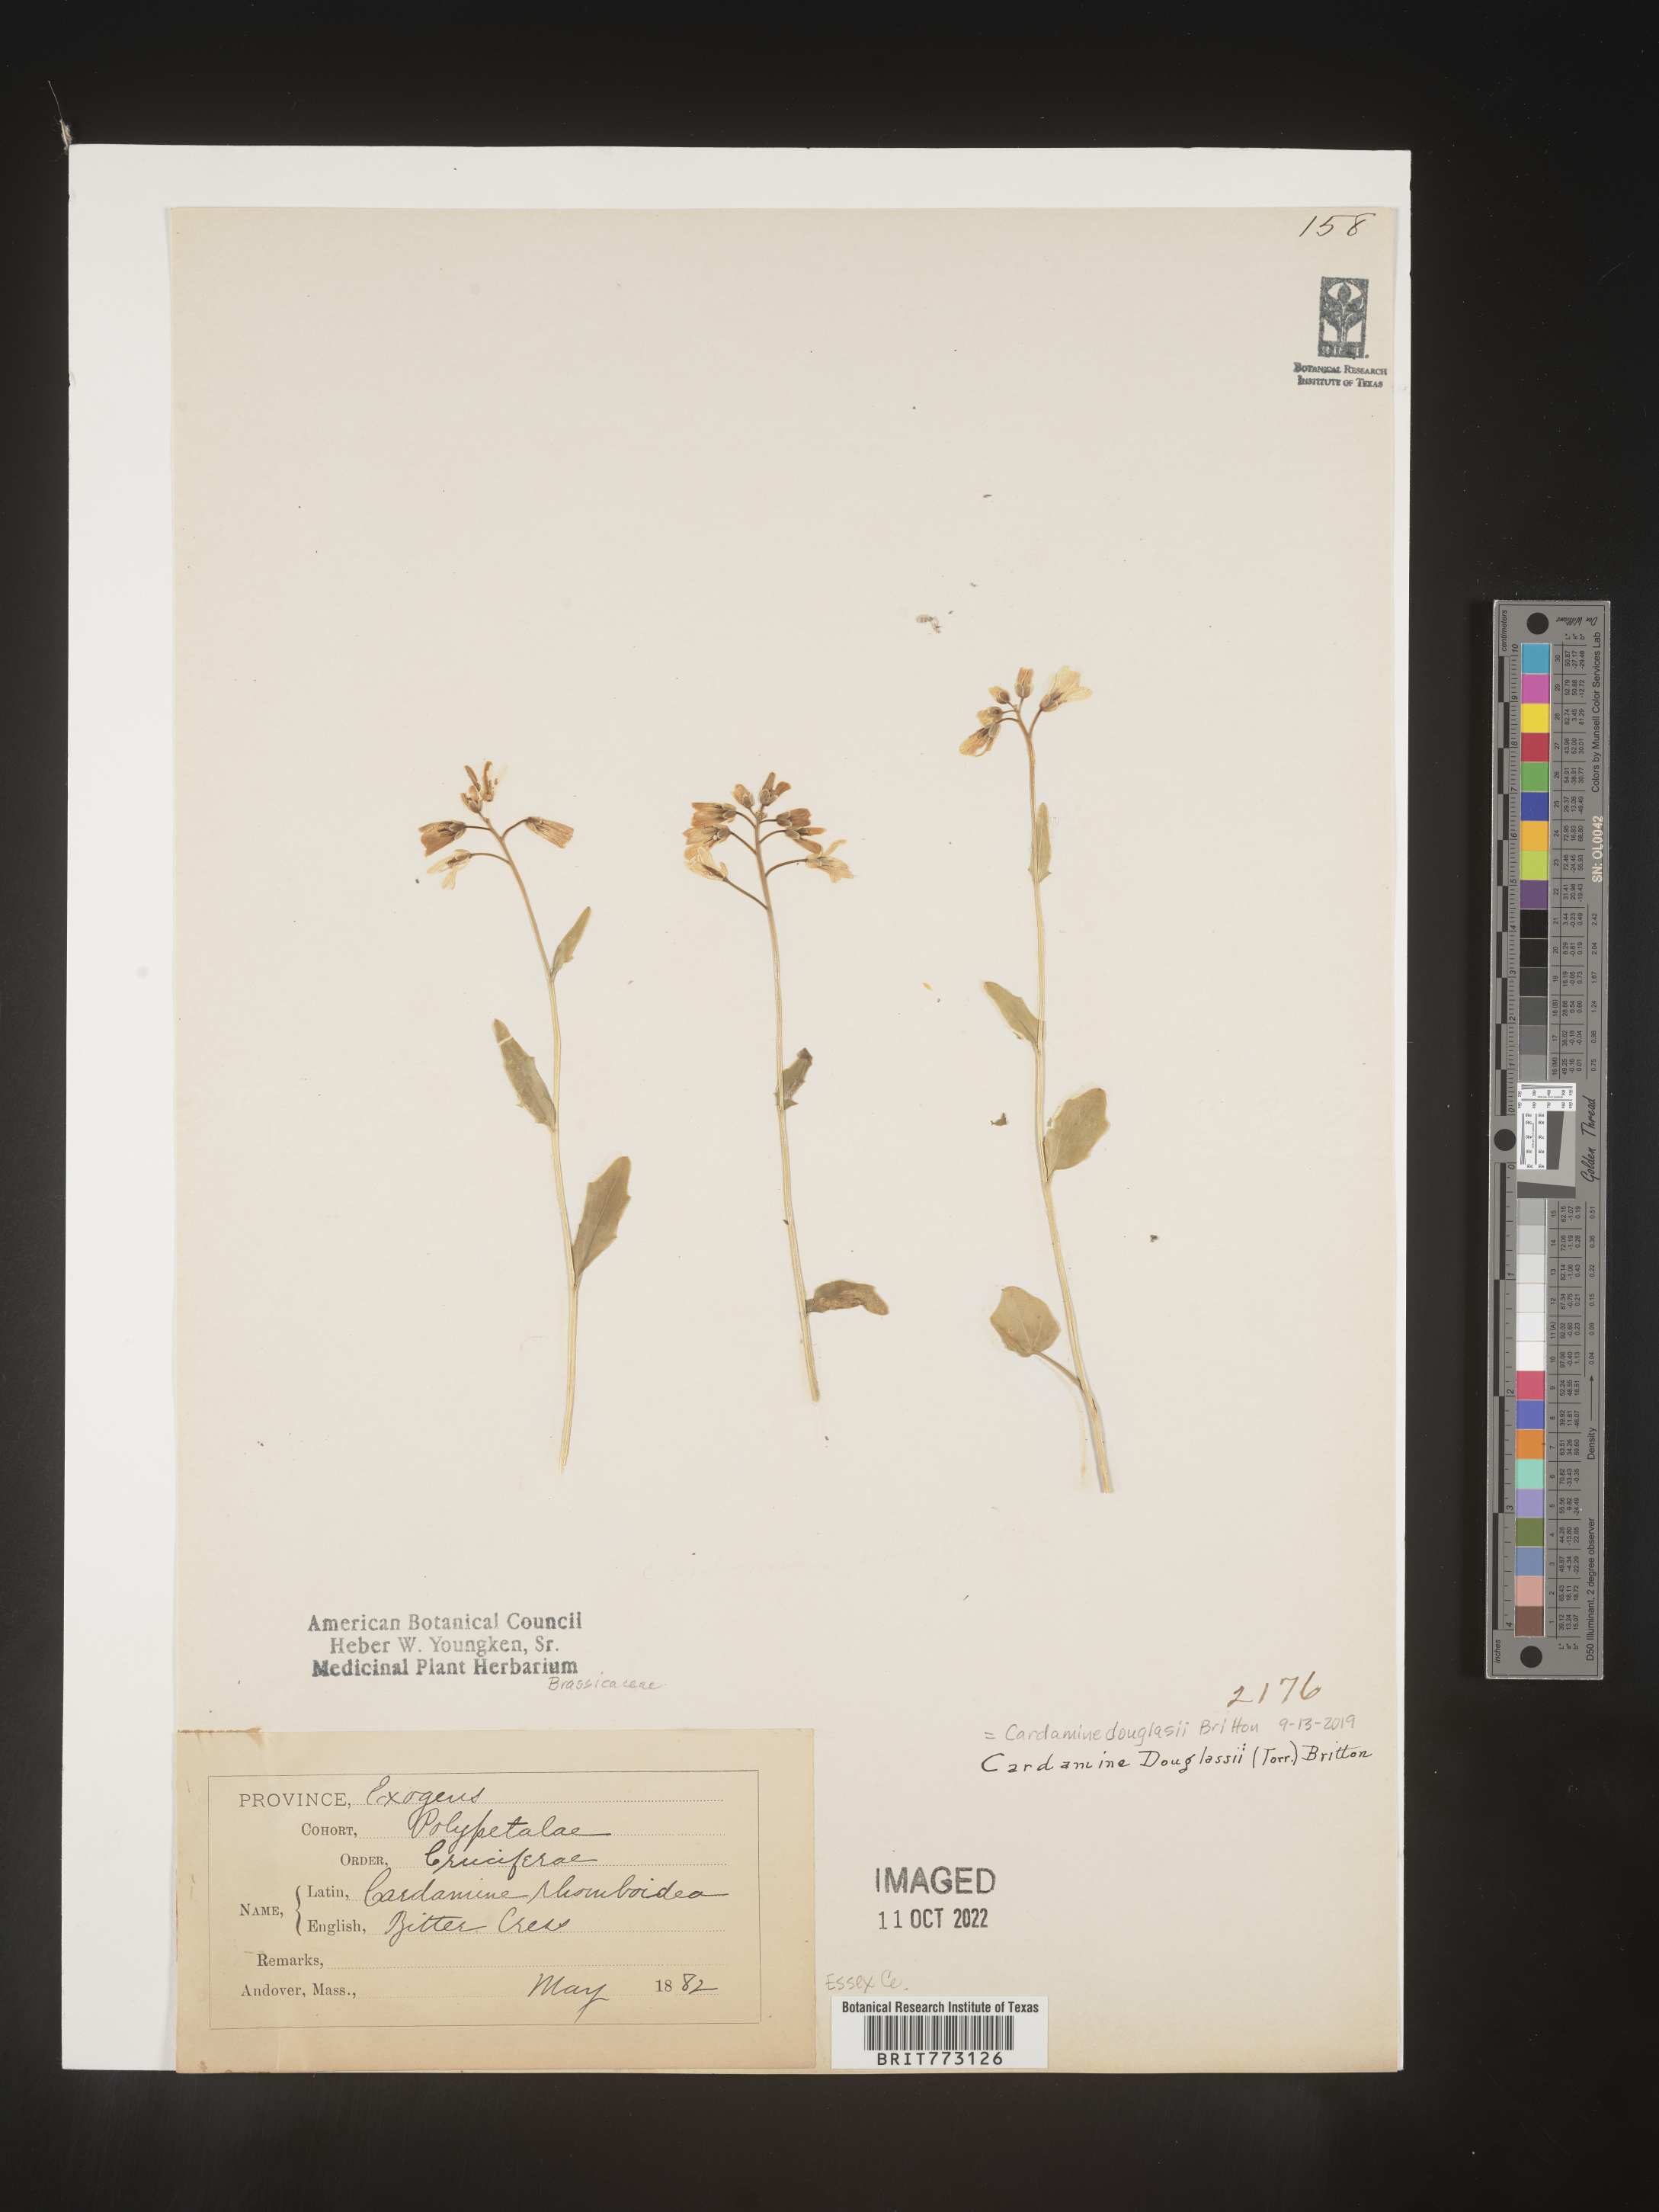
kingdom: Plantae
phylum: Tracheophyta
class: Magnoliopsida
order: Brassicales
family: Brassicaceae
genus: Cardamine
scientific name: Cardamine
